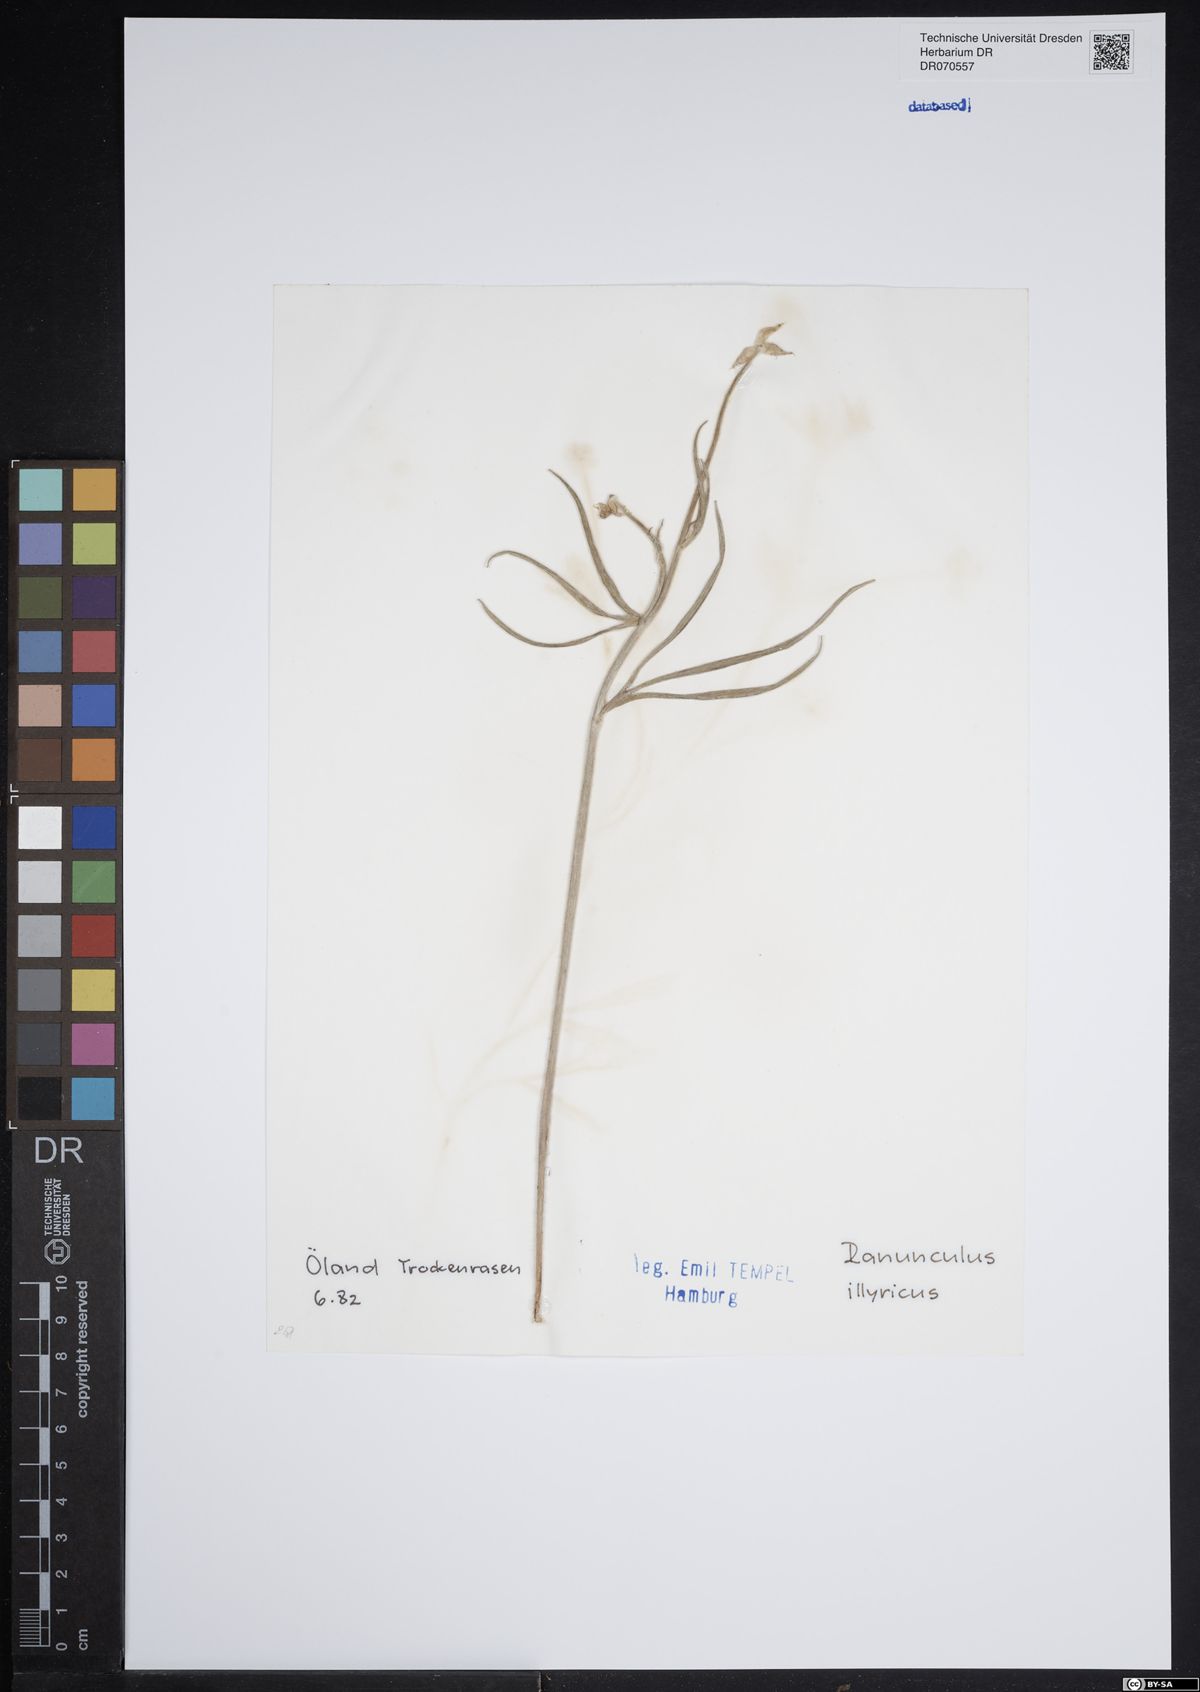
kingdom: Plantae
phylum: Tracheophyta
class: Magnoliopsida
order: Ranunculales
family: Ranunculaceae
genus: Ranunculus
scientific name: Ranunculus illyricus
